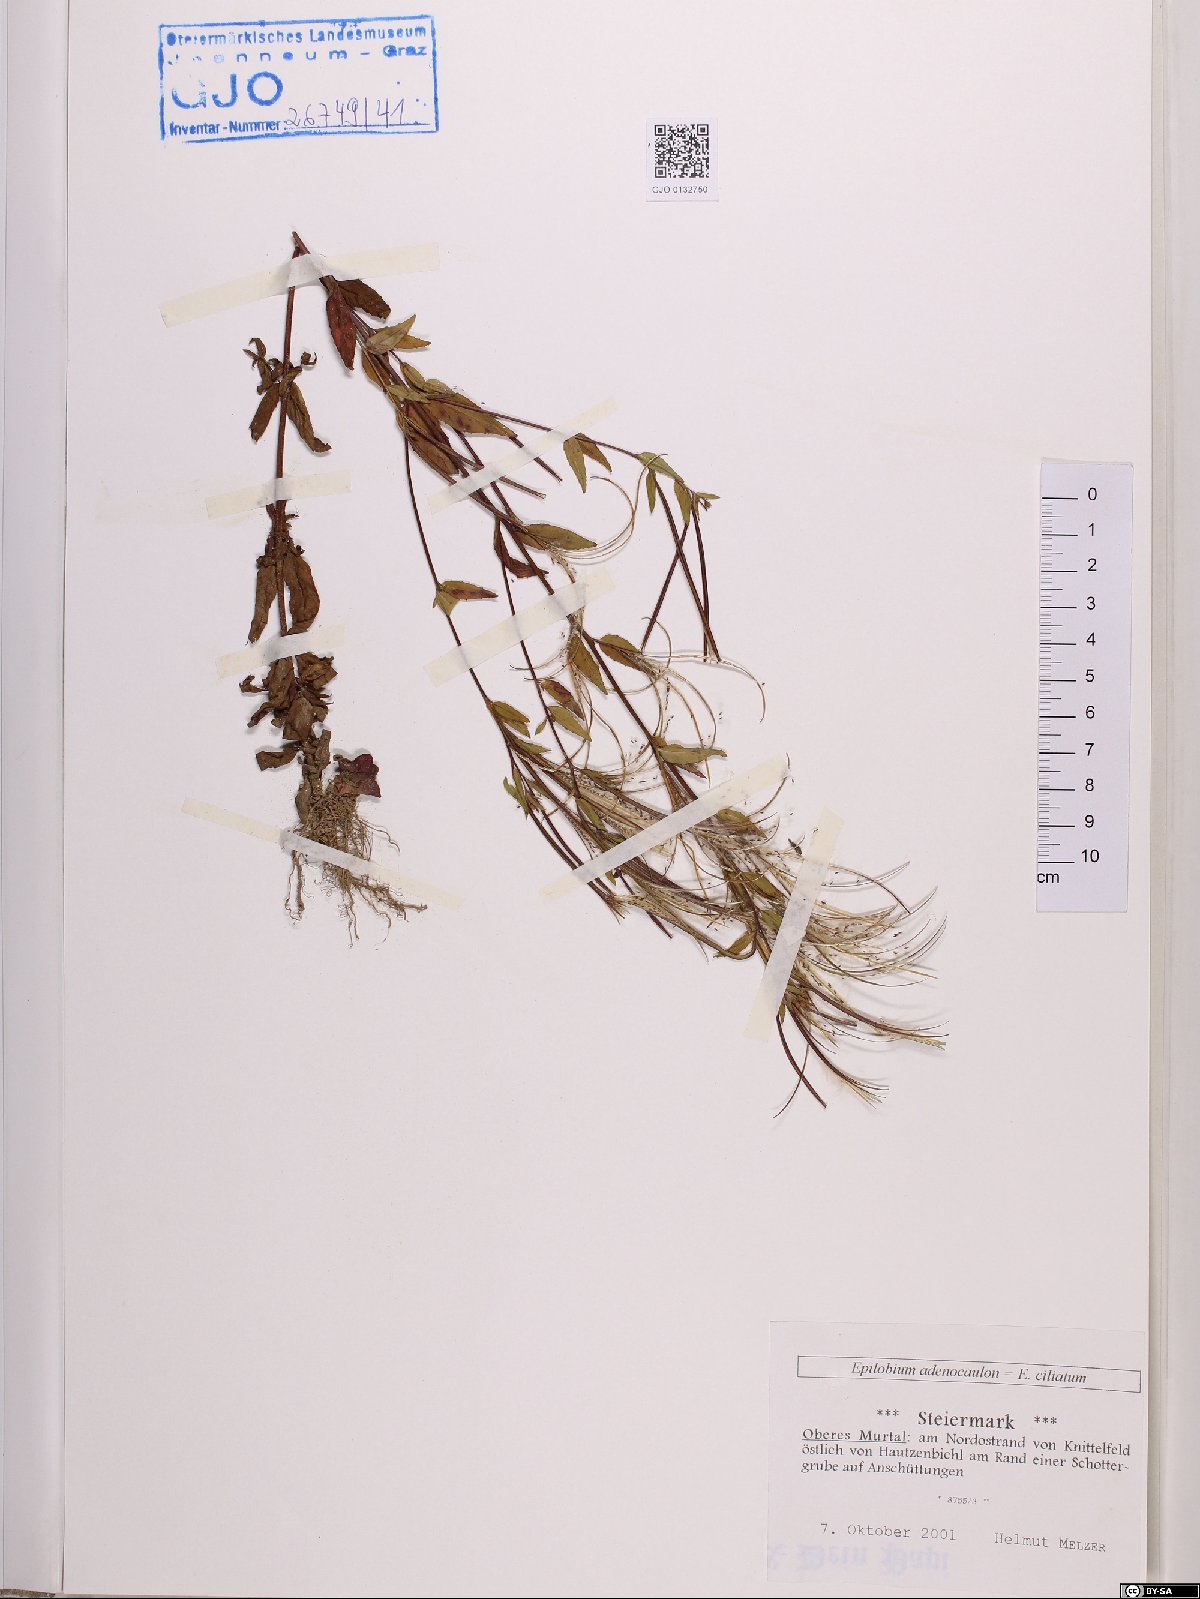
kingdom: Plantae
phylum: Tracheophyta
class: Magnoliopsida
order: Myrtales
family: Onagraceae
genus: Epilobium
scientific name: Epilobium ciliatum
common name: American willowherb
